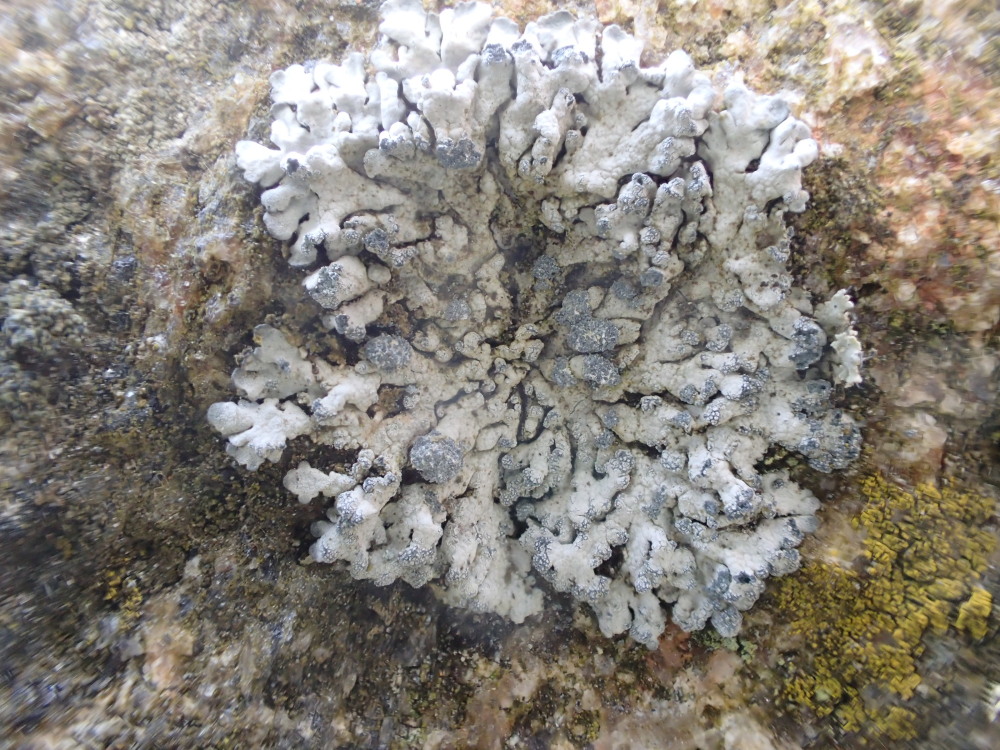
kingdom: Fungi
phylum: Ascomycota
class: Lecanoromycetes
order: Caliciales
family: Physciaceae
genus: Physcia
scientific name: Physcia caesia
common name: blågrå rosetlav
